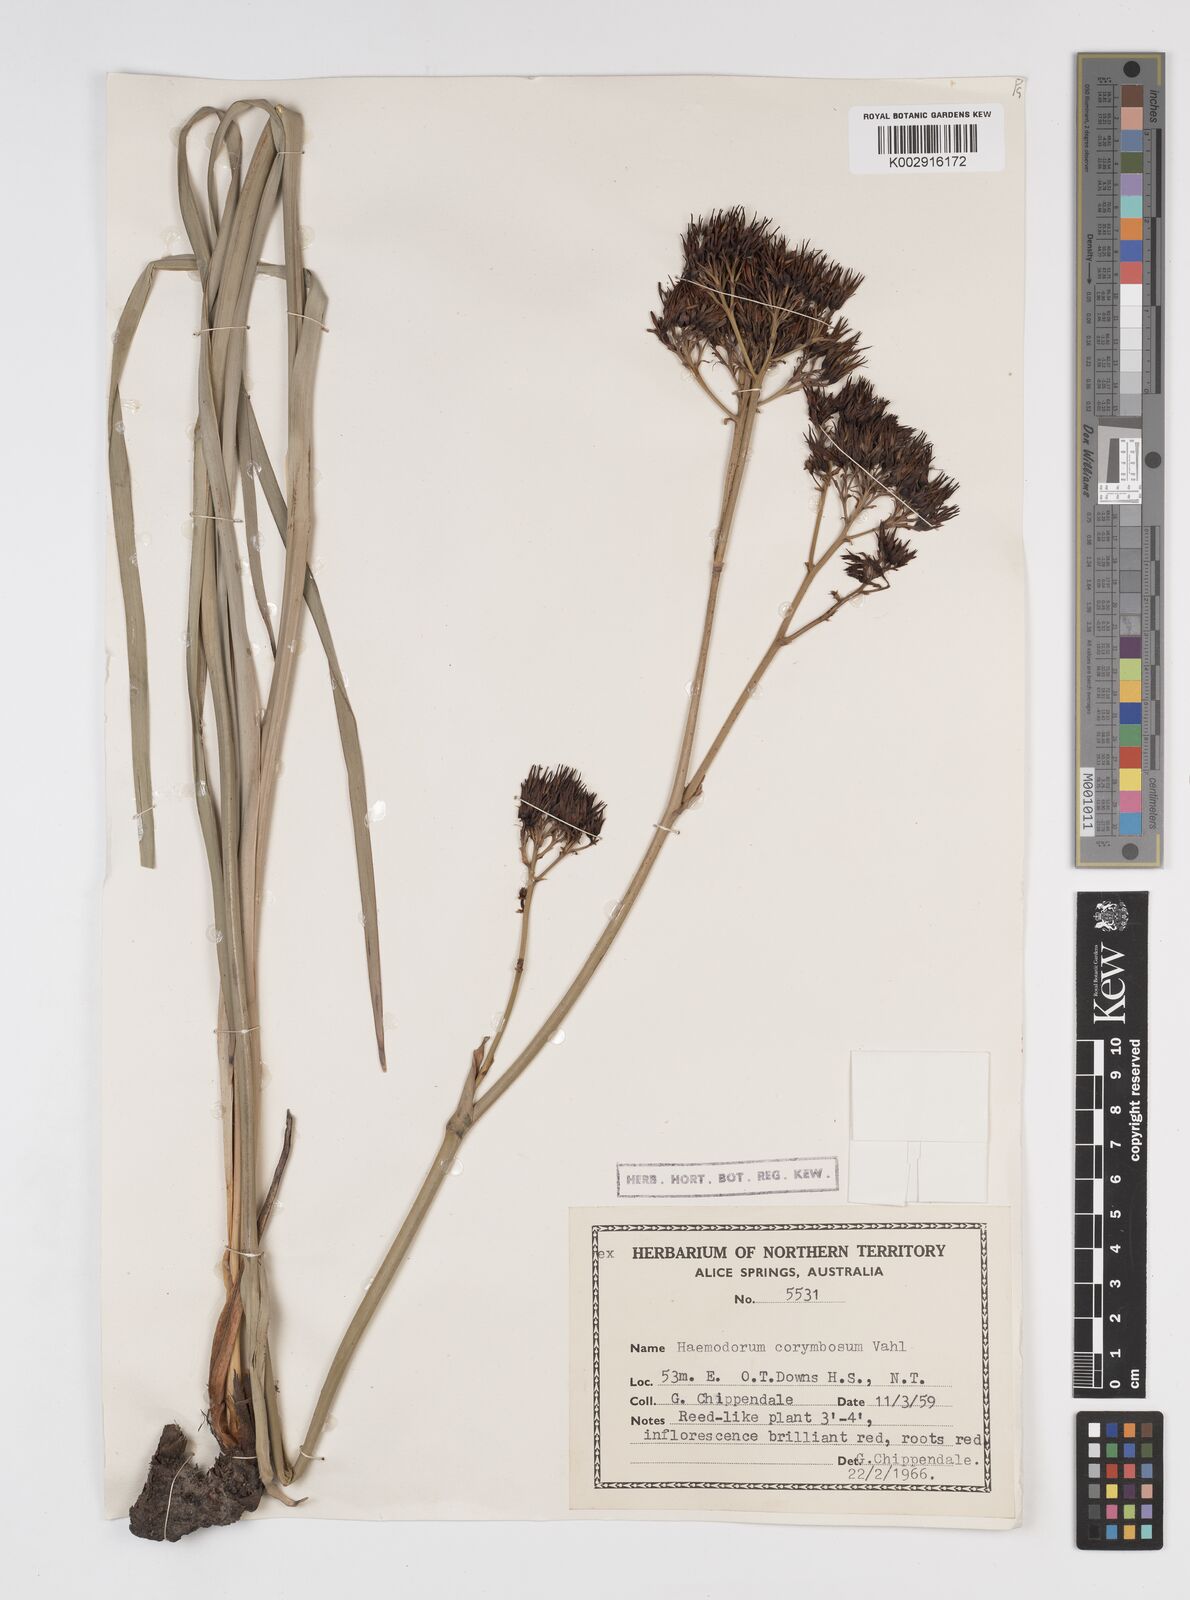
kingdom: Plantae
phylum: Tracheophyta
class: Liliopsida
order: Commelinales
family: Haemodoraceae
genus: Haemodorum
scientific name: Haemodorum corymbosum
